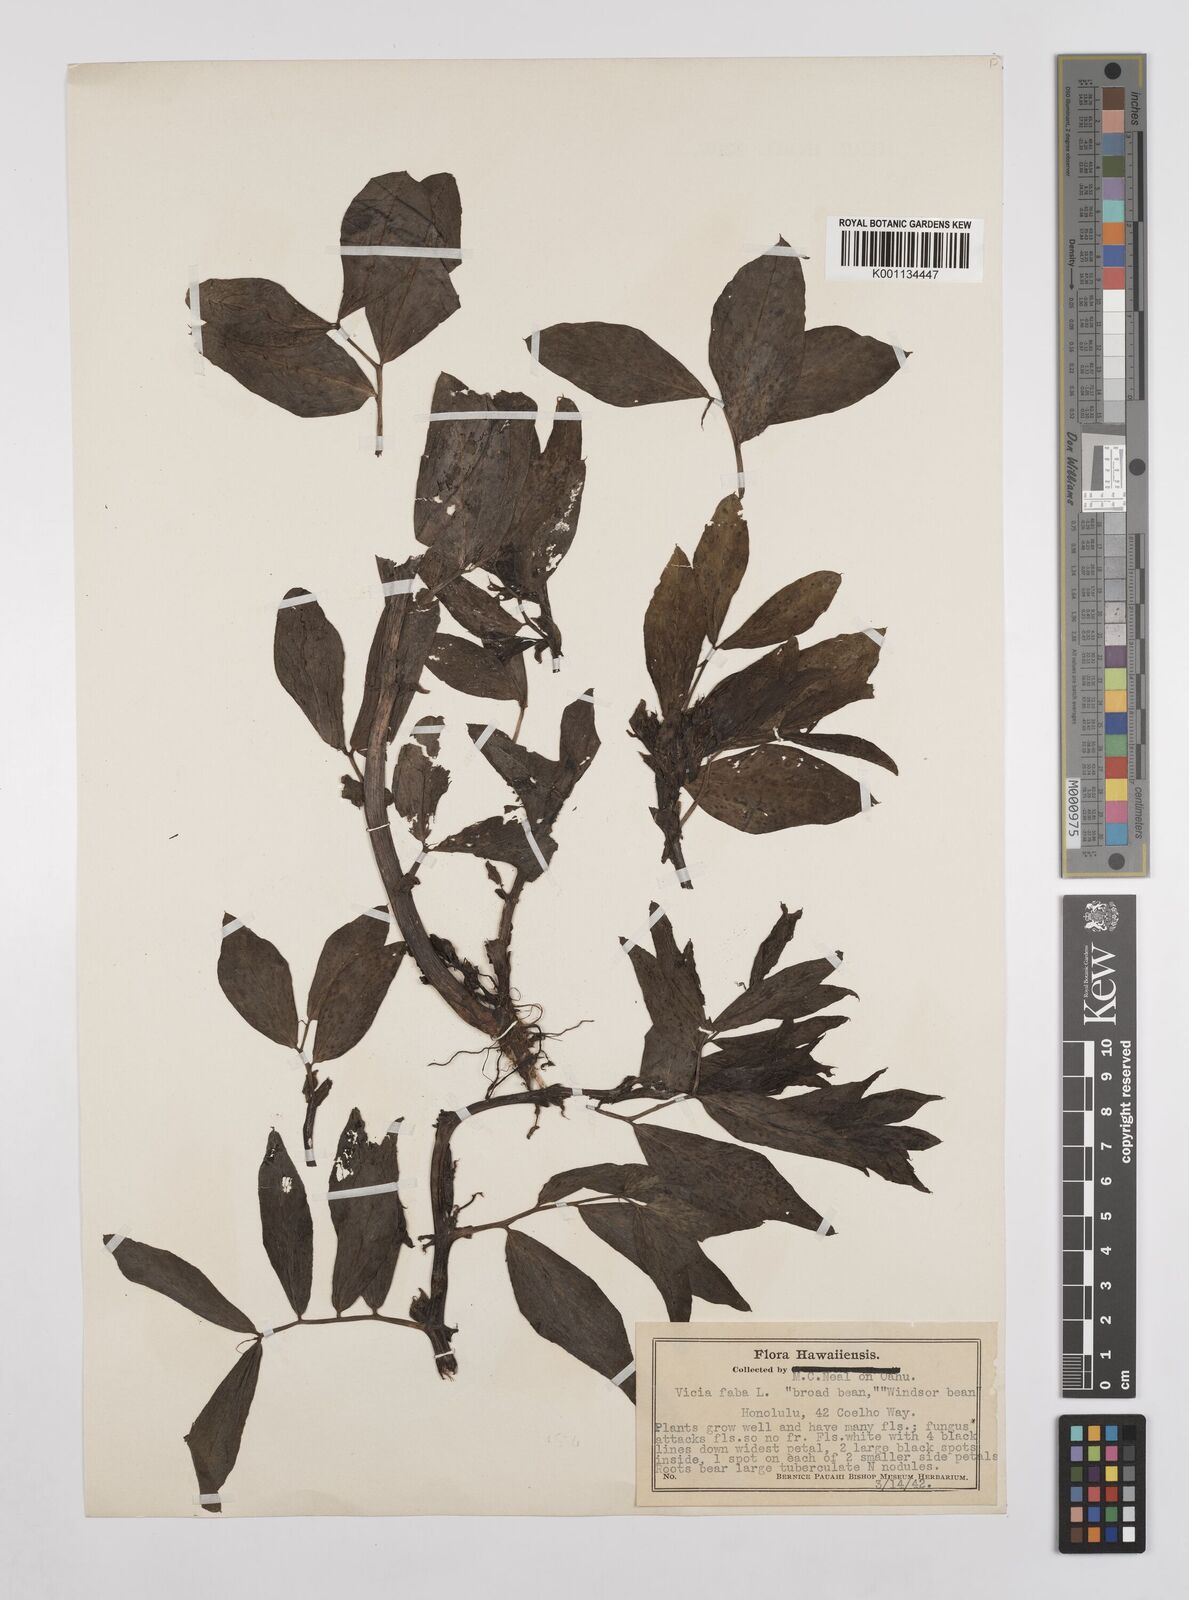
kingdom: Plantae
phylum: Tracheophyta
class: Magnoliopsida
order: Fabales
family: Fabaceae
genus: Vicia
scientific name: Vicia faba
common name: Broad bean
